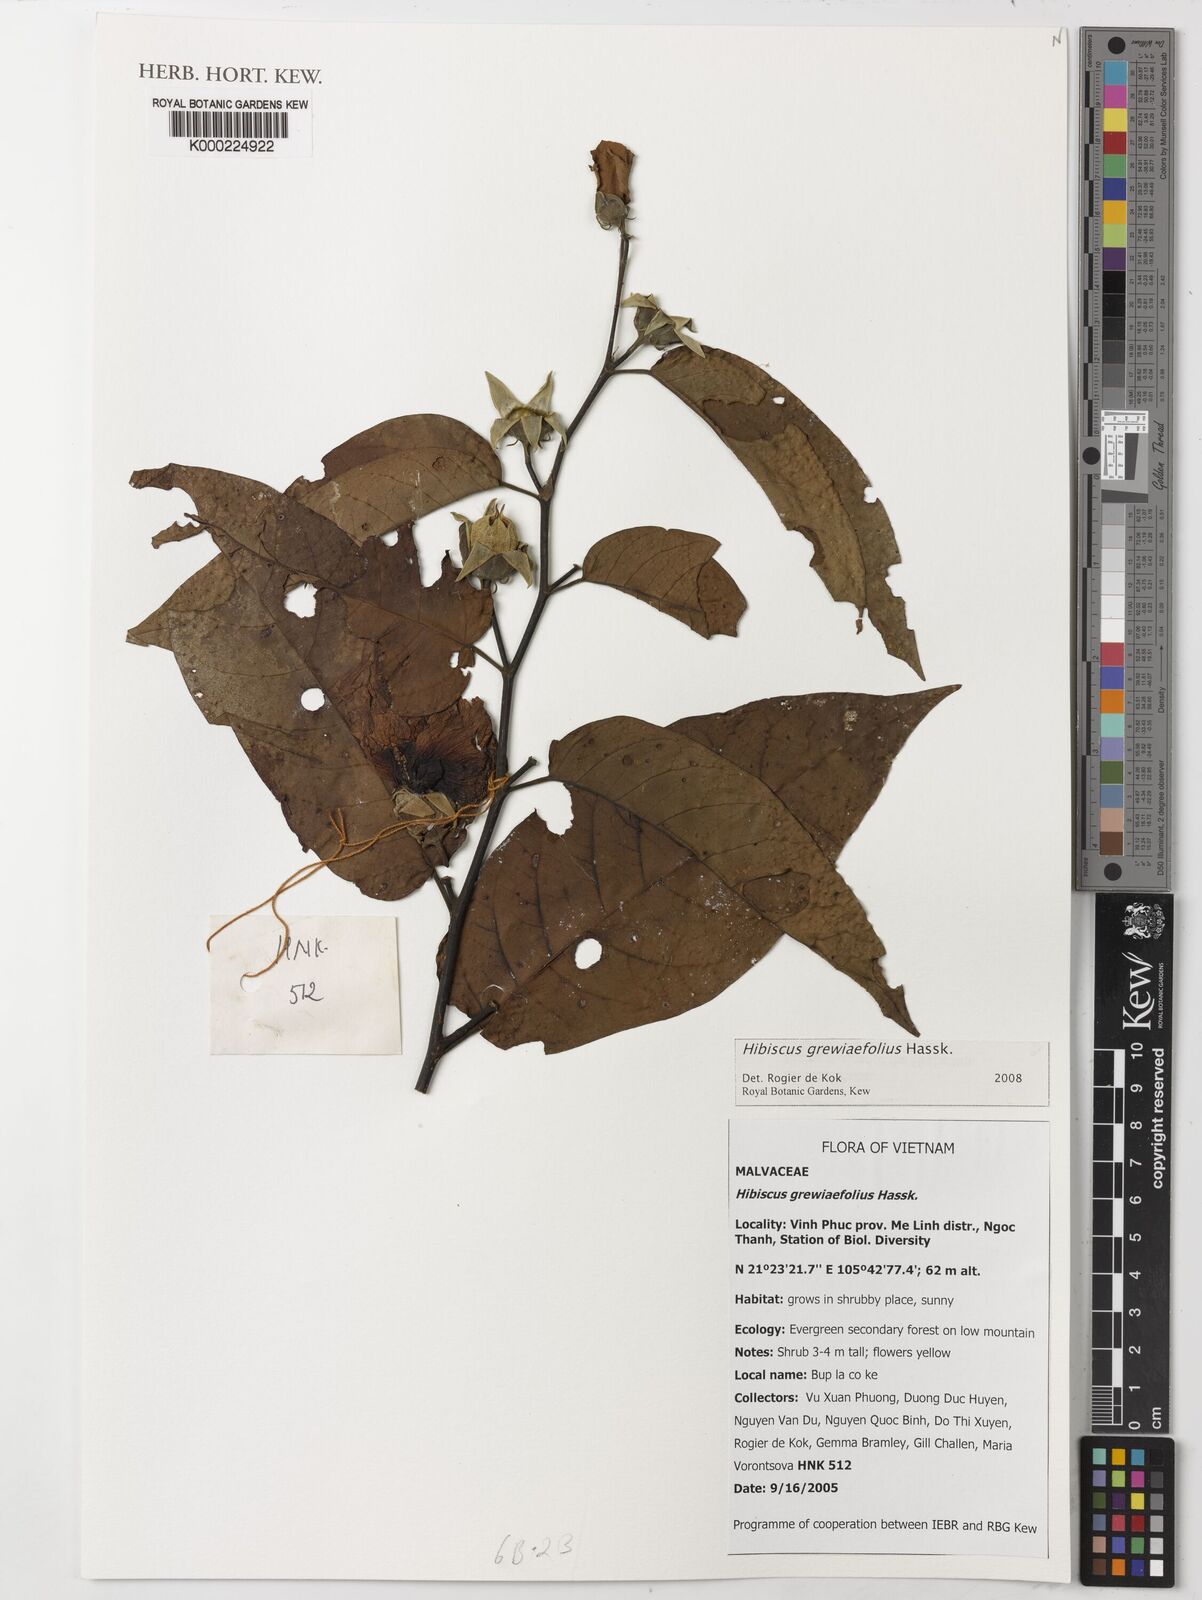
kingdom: Plantae
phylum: Tracheophyta
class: Magnoliopsida
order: Malvales
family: Malvaceae
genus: Hibiscus
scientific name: Hibiscus
